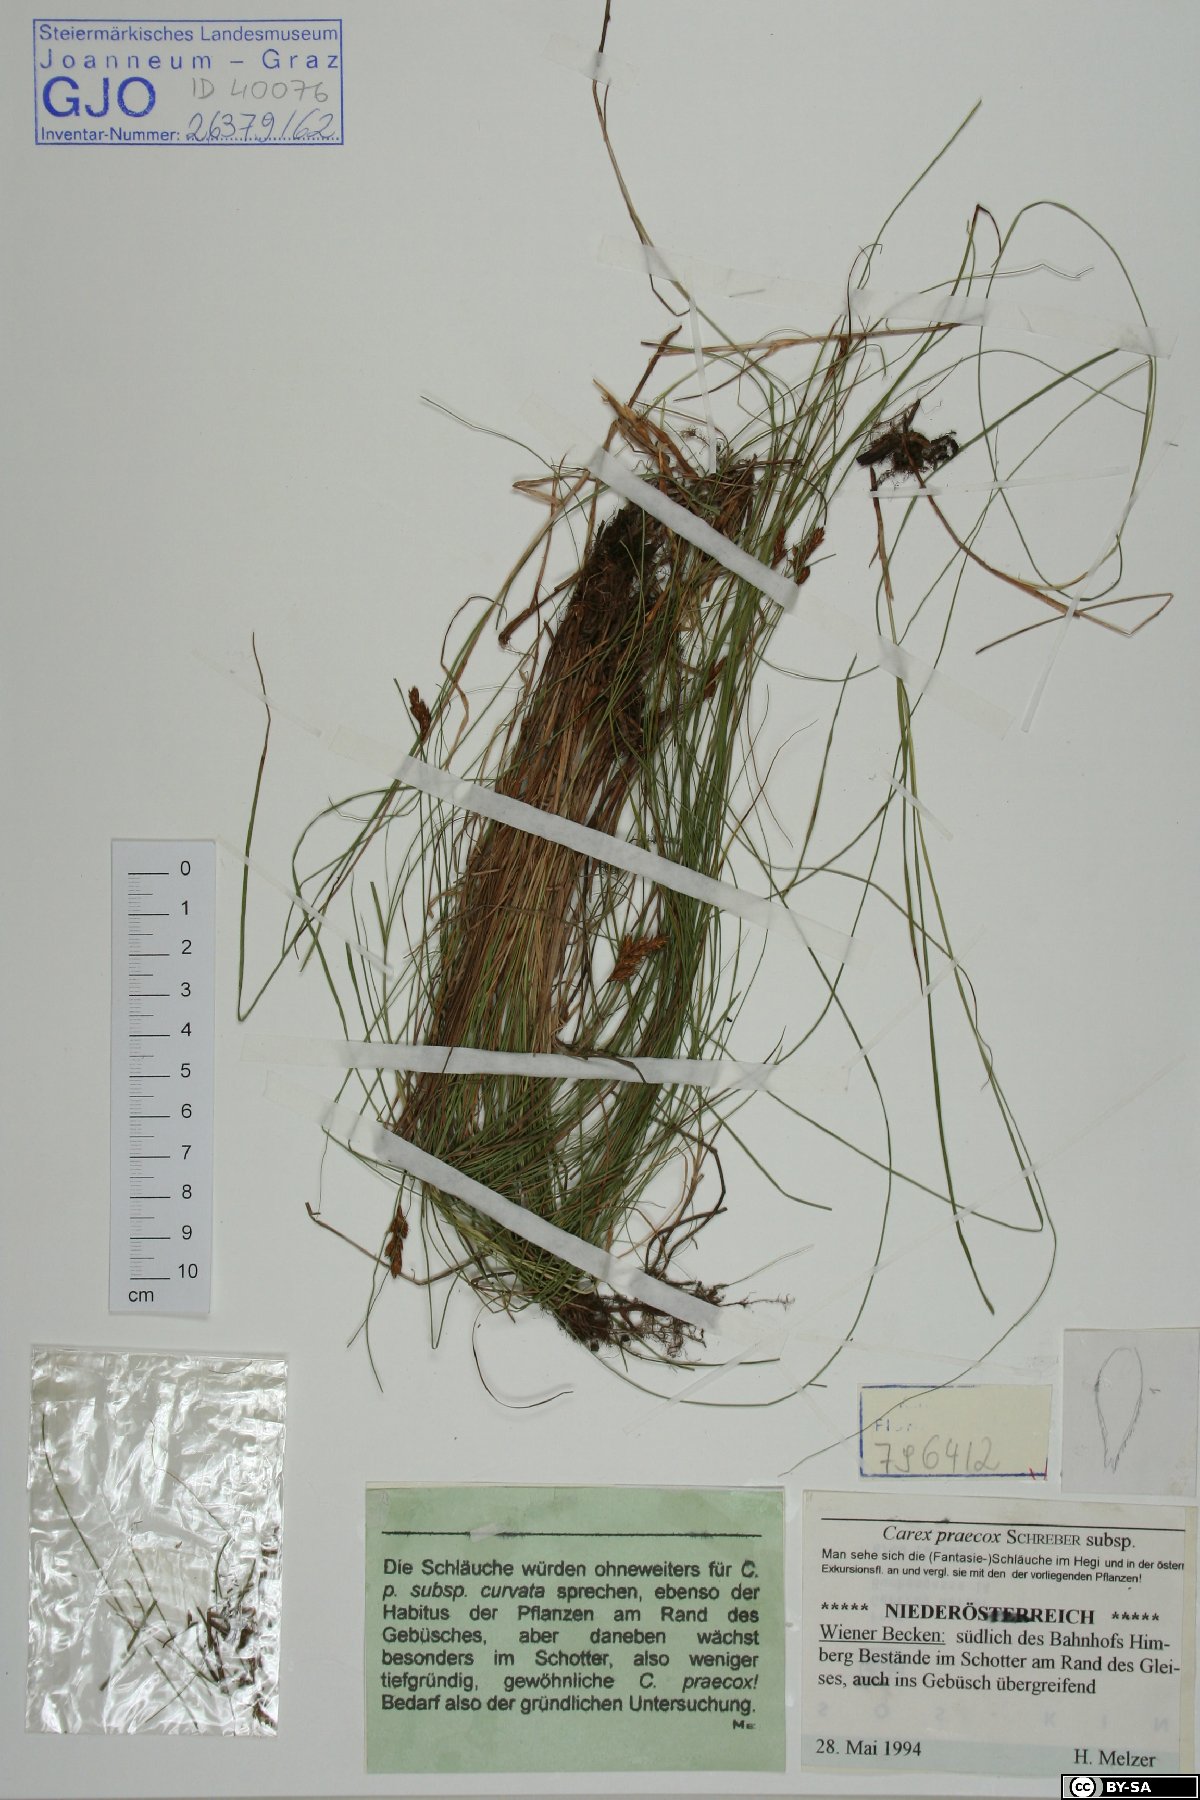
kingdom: Plantae
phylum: Tracheophyta
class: Liliopsida
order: Poales
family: Cyperaceae
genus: Carex
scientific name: Carex praecox
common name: Early sedge
